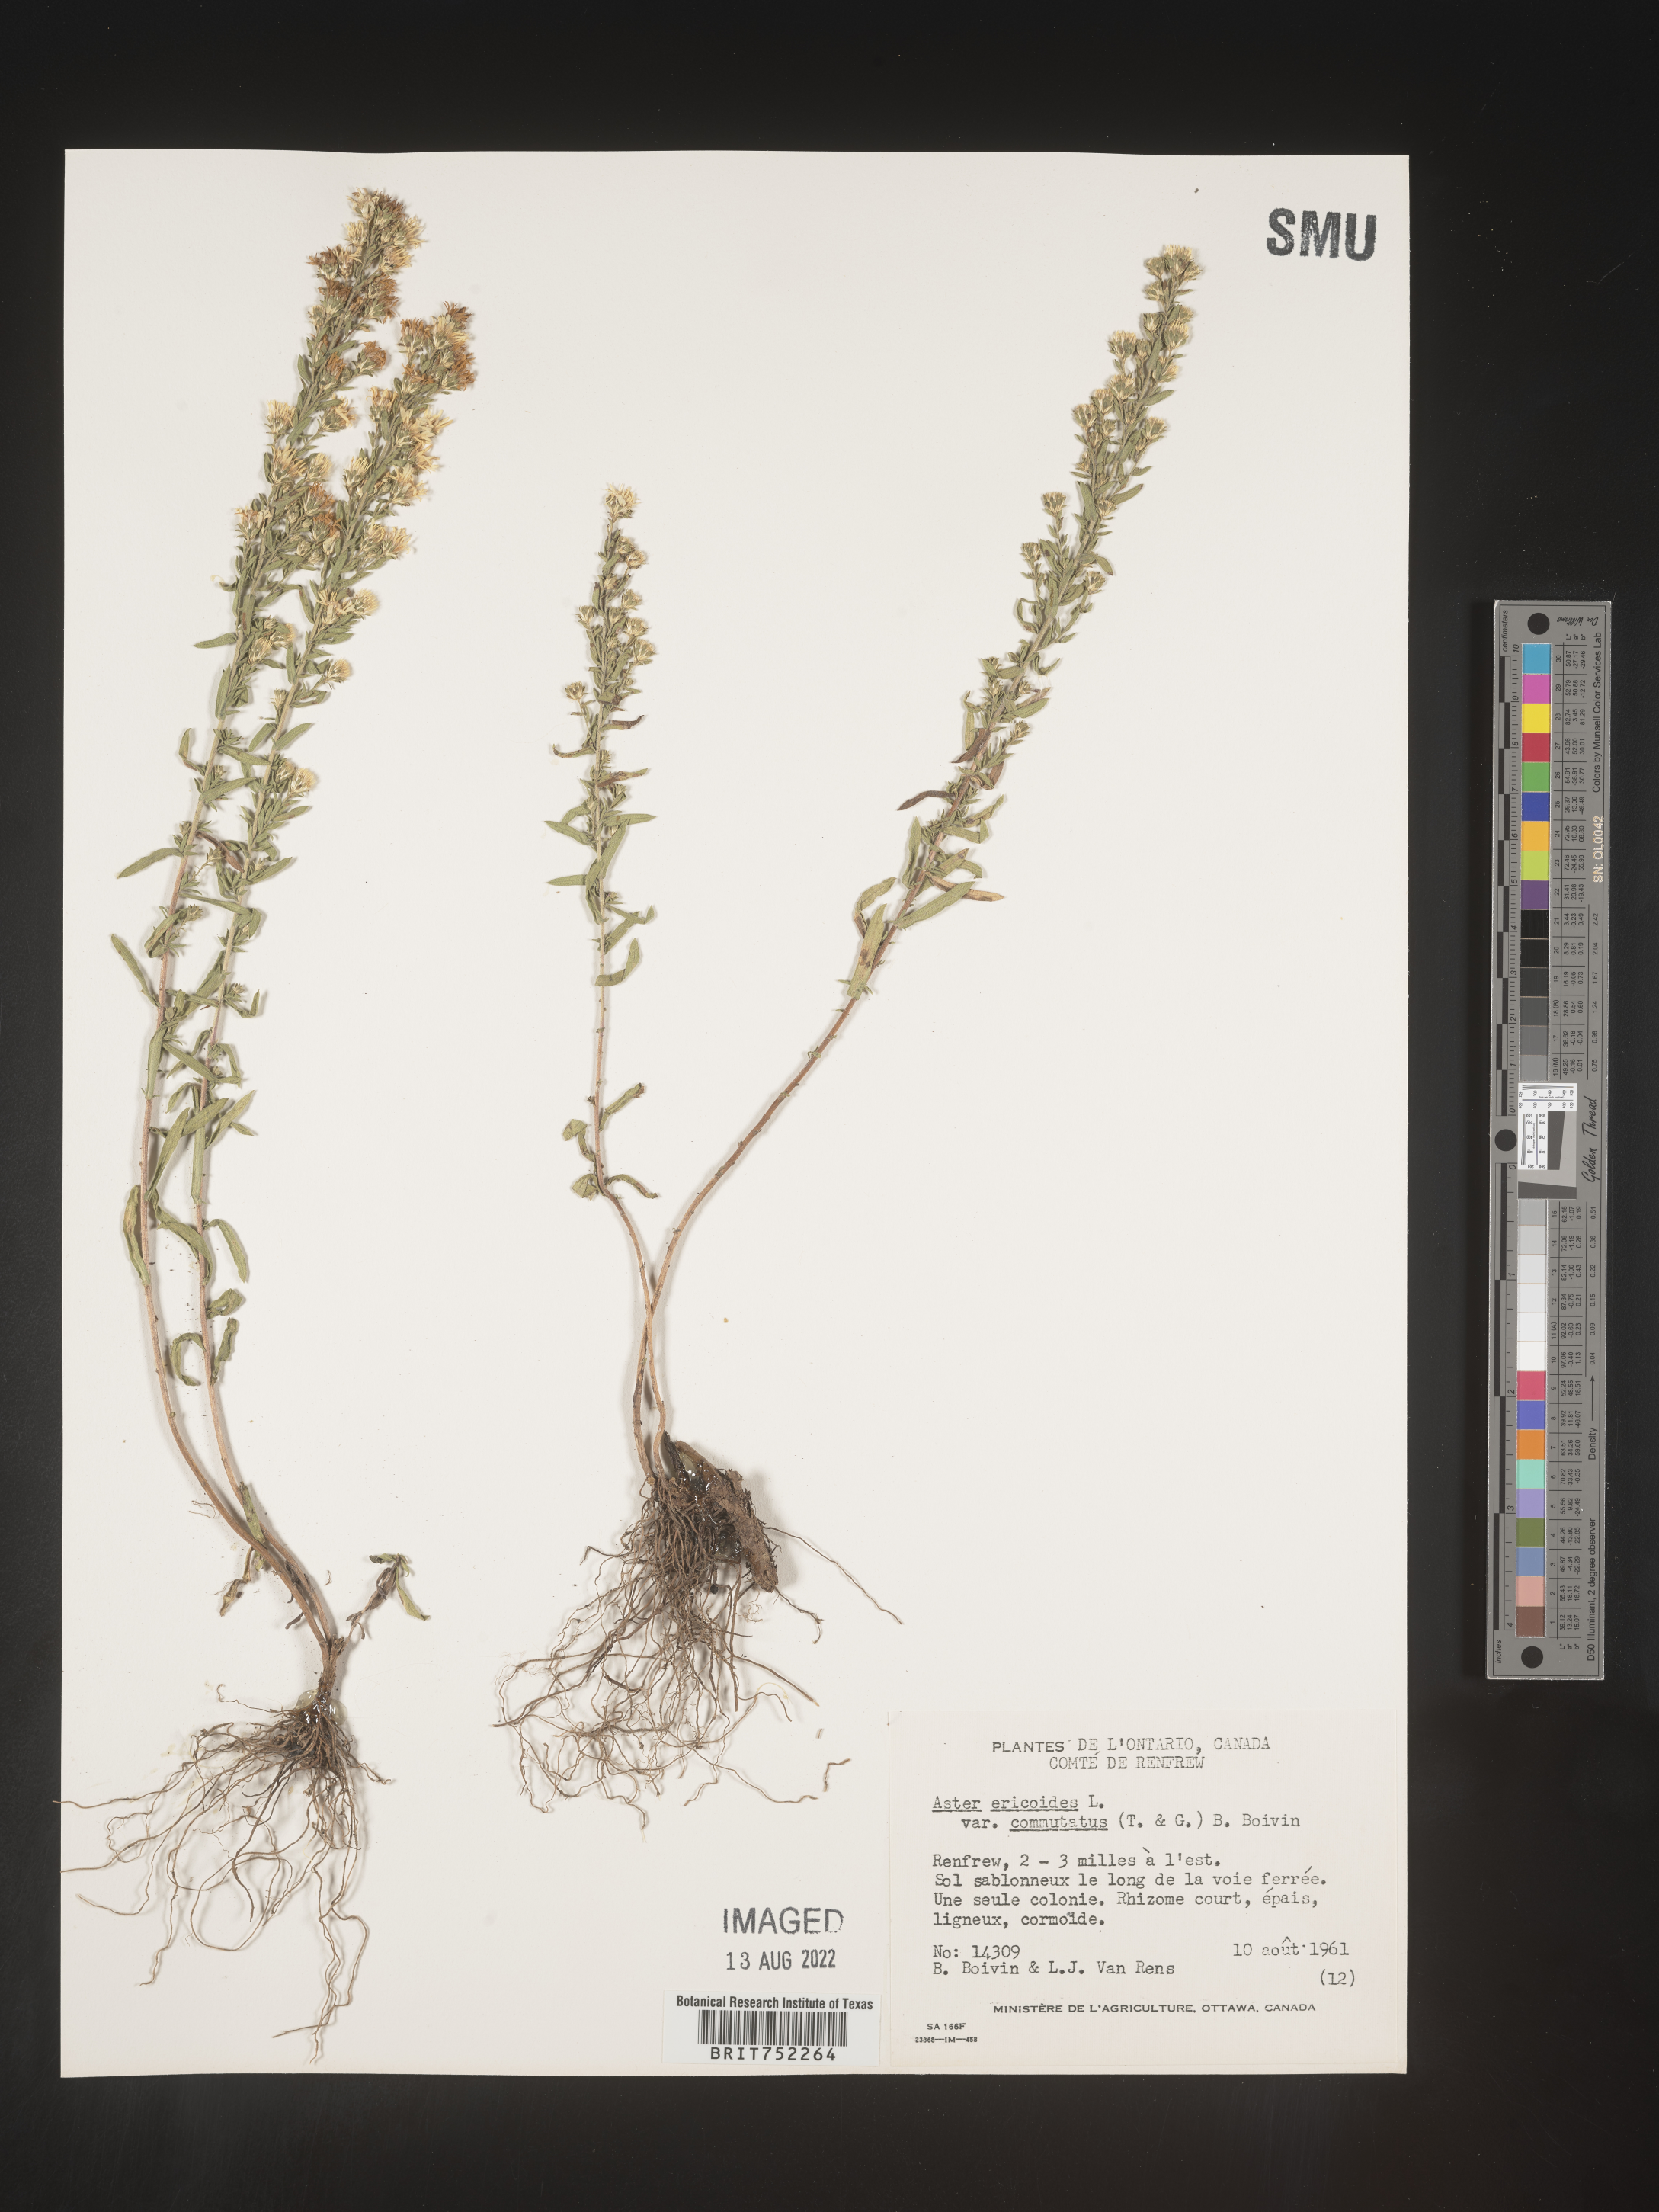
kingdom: Plantae
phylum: Tracheophyta
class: Magnoliopsida
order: Asterales
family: Asteraceae
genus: Symphyotrichum
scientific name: Symphyotrichum ericoides
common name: Heath aster
